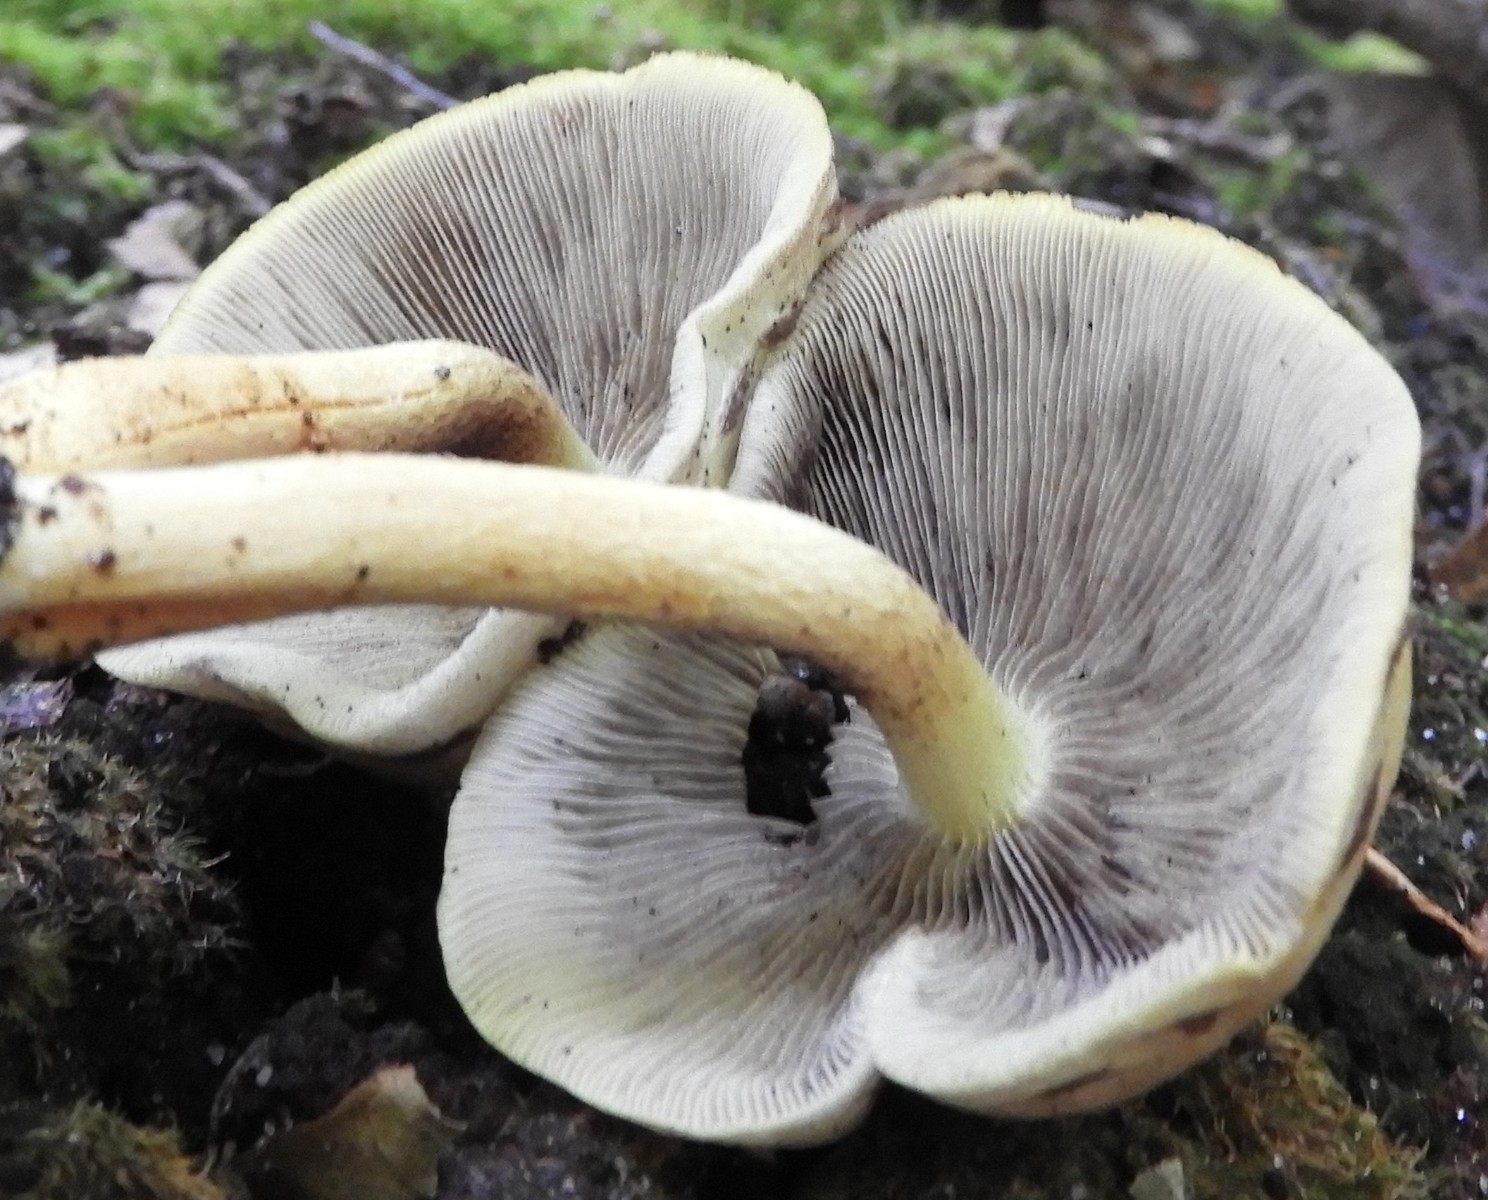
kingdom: Fungi
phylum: Basidiomycota
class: Agaricomycetes
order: Agaricales
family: Strophariaceae
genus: Hypholoma
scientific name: Hypholoma fasciculare
